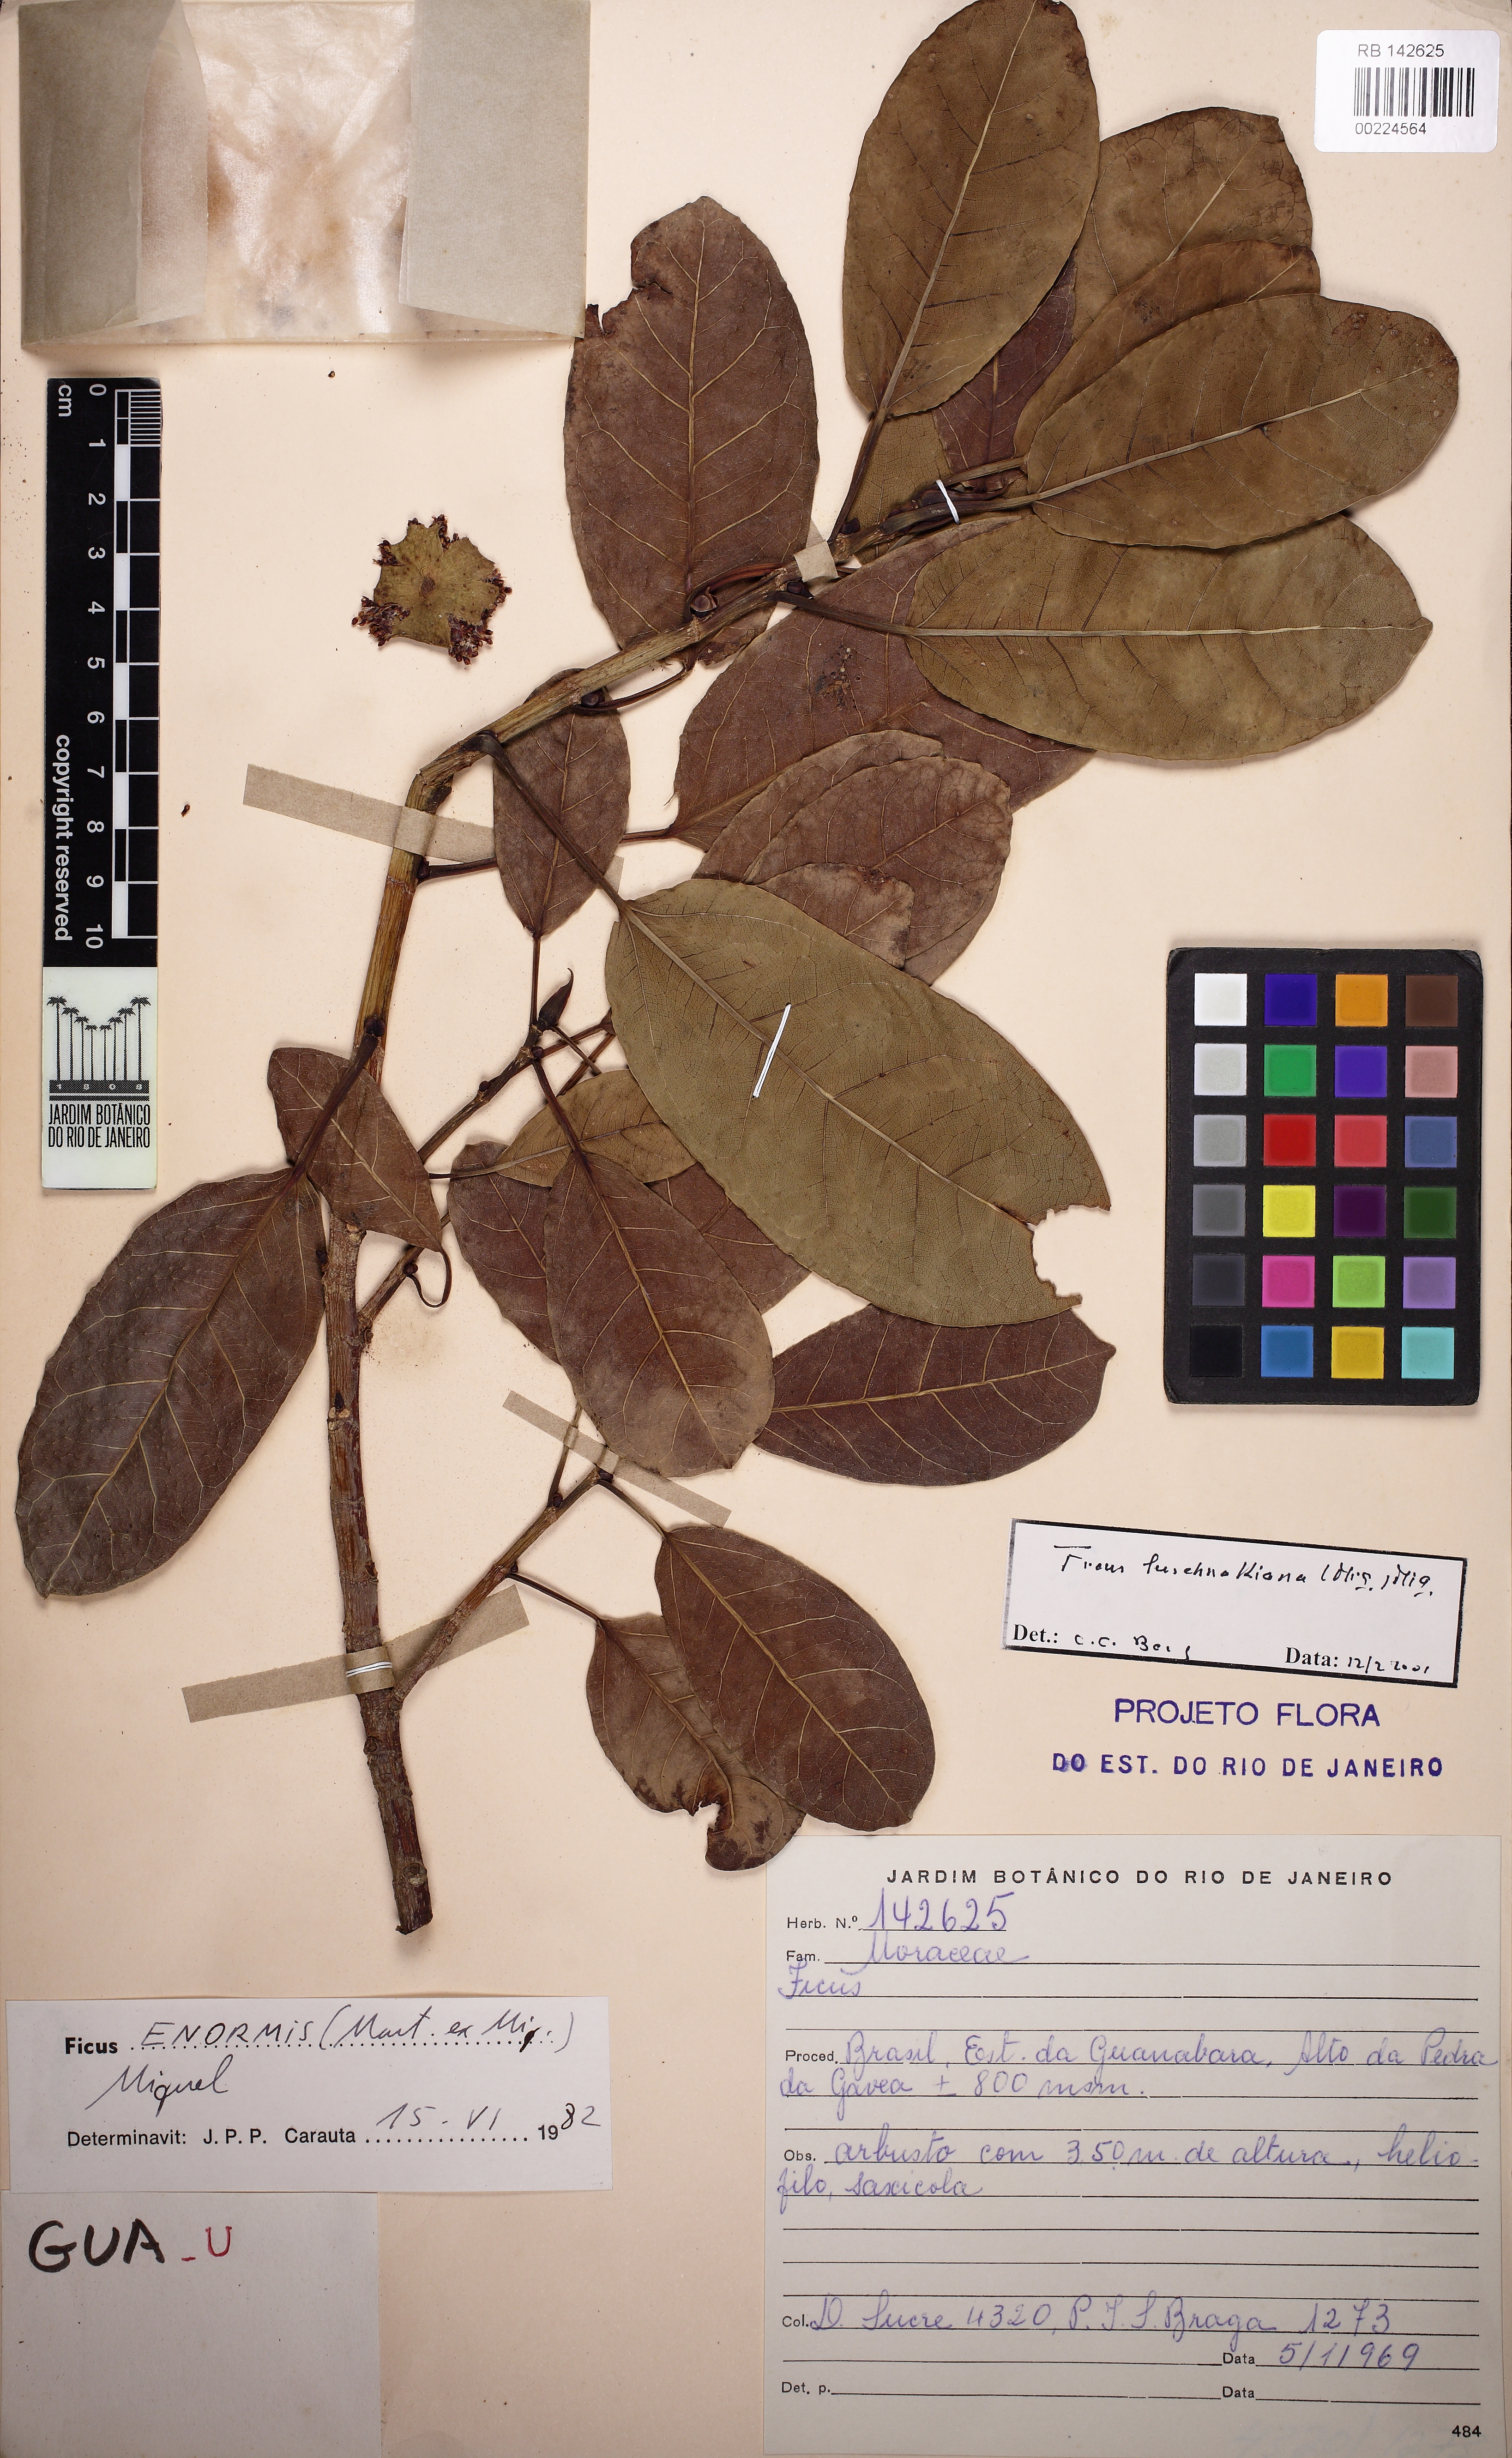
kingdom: Plantae
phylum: Tracheophyta
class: Magnoliopsida
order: Rosales
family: Moraceae
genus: Ficus
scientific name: Ficus luschnathiana
